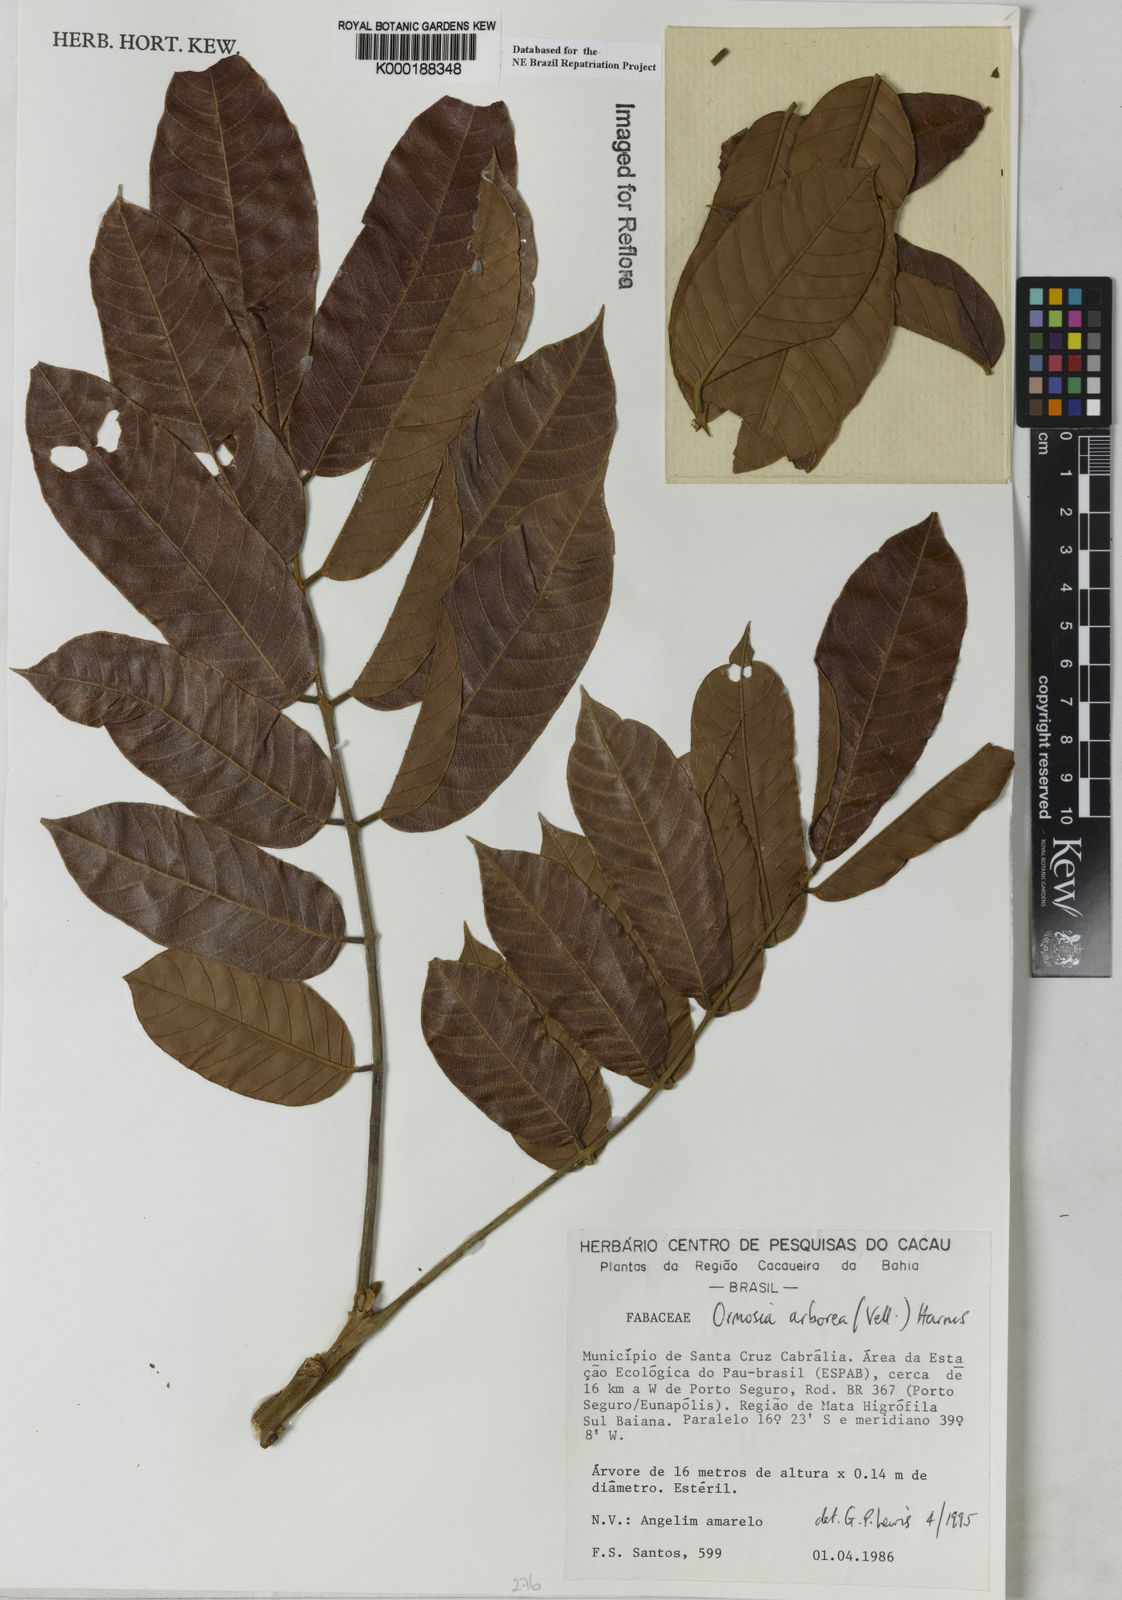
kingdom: Plantae
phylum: Tracheophyta
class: Magnoliopsida
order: Fabales
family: Fabaceae
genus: Ormosia
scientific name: Ormosia arborea
